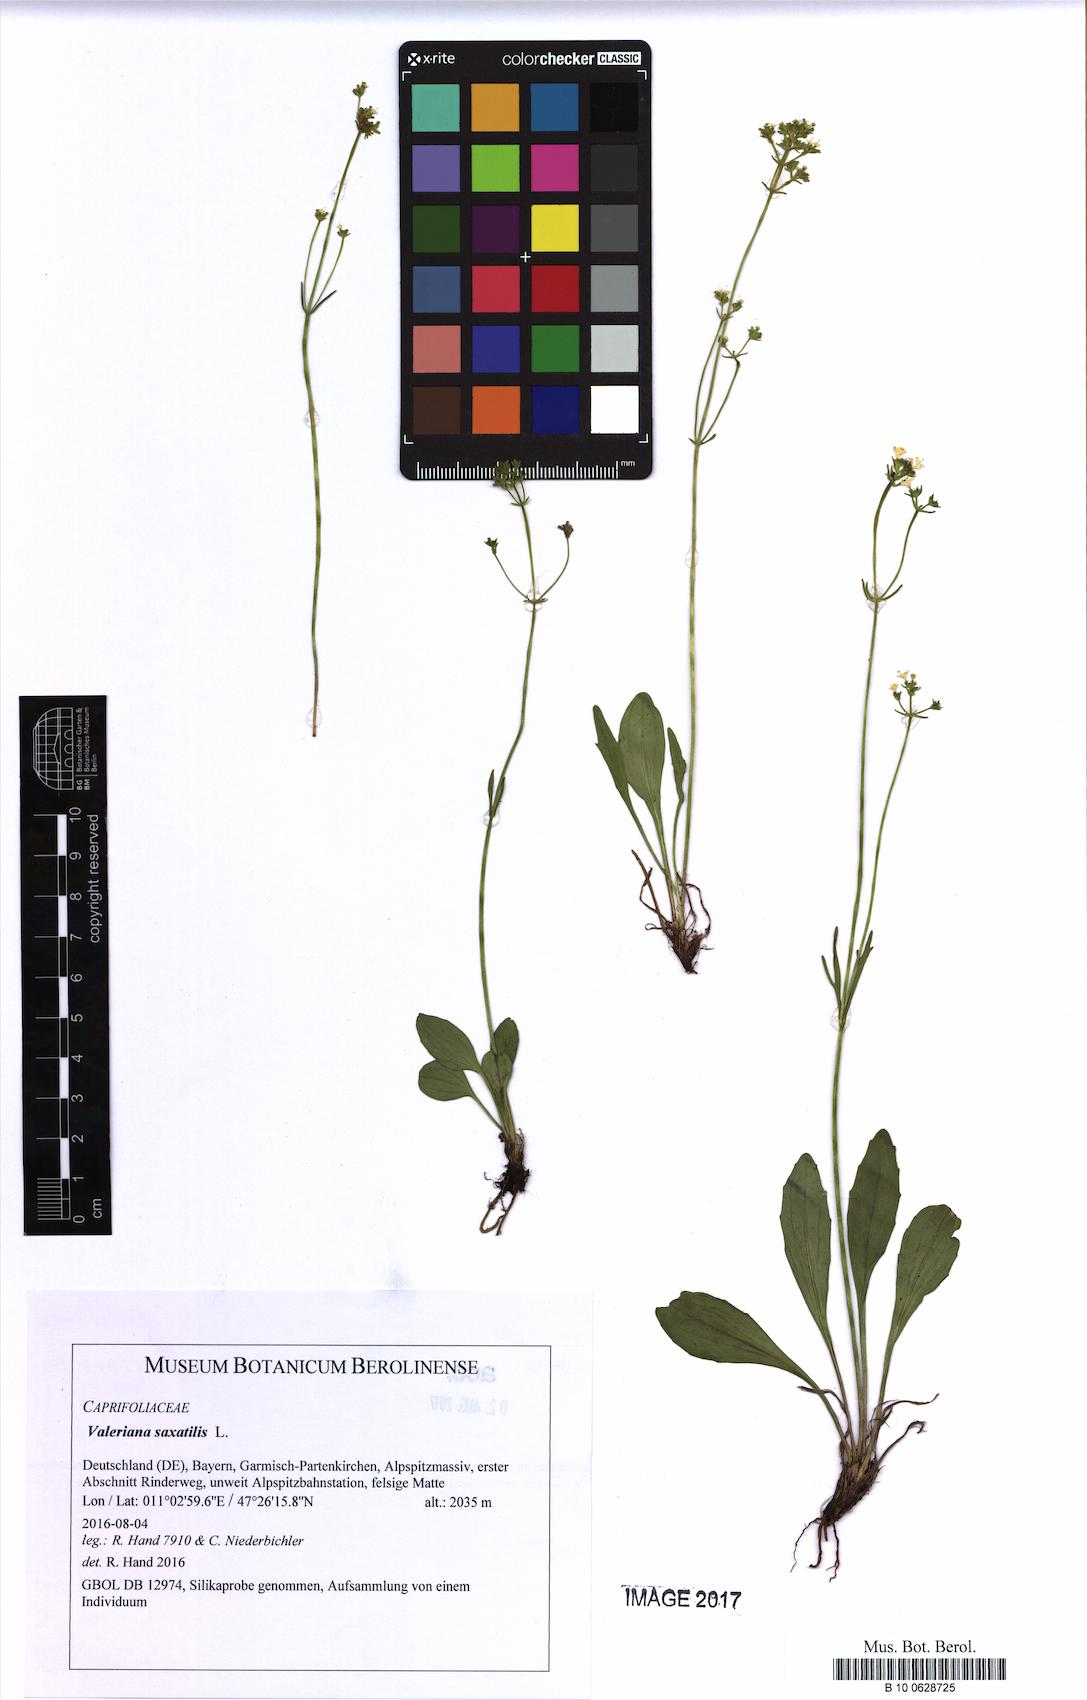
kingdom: Plantae
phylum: Tracheophyta
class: Magnoliopsida
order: Dipsacales
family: Caprifoliaceae
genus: Valeriana
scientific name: Valeriana saxatilis
